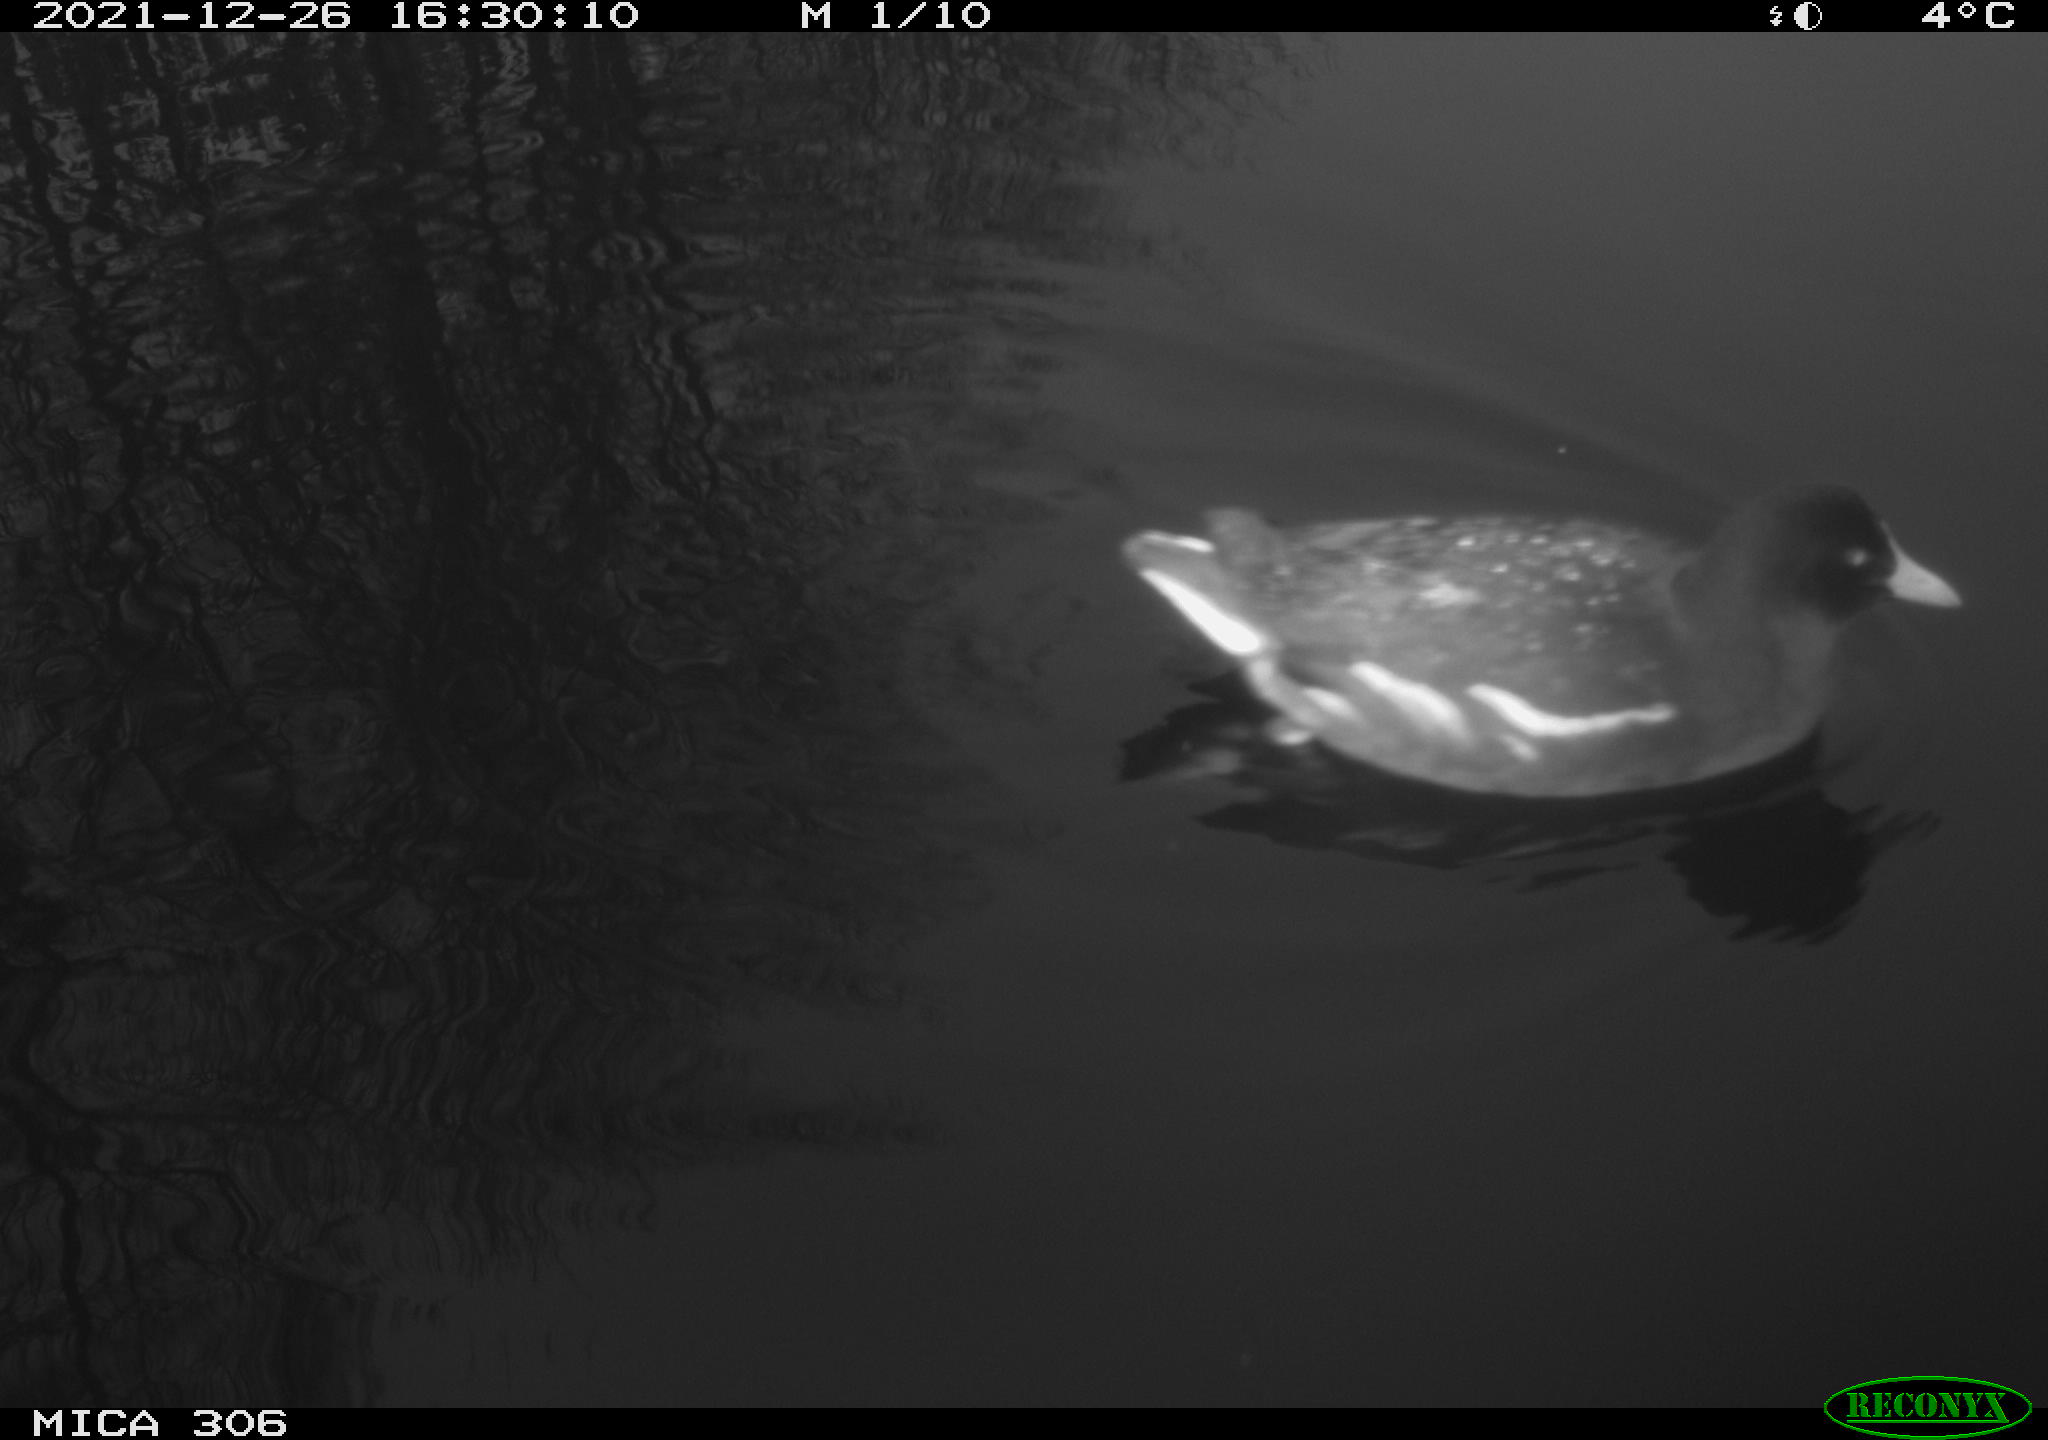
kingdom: Animalia
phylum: Chordata
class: Aves
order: Gruiformes
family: Rallidae
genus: Gallinula
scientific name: Gallinula chloropus
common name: Common moorhen
